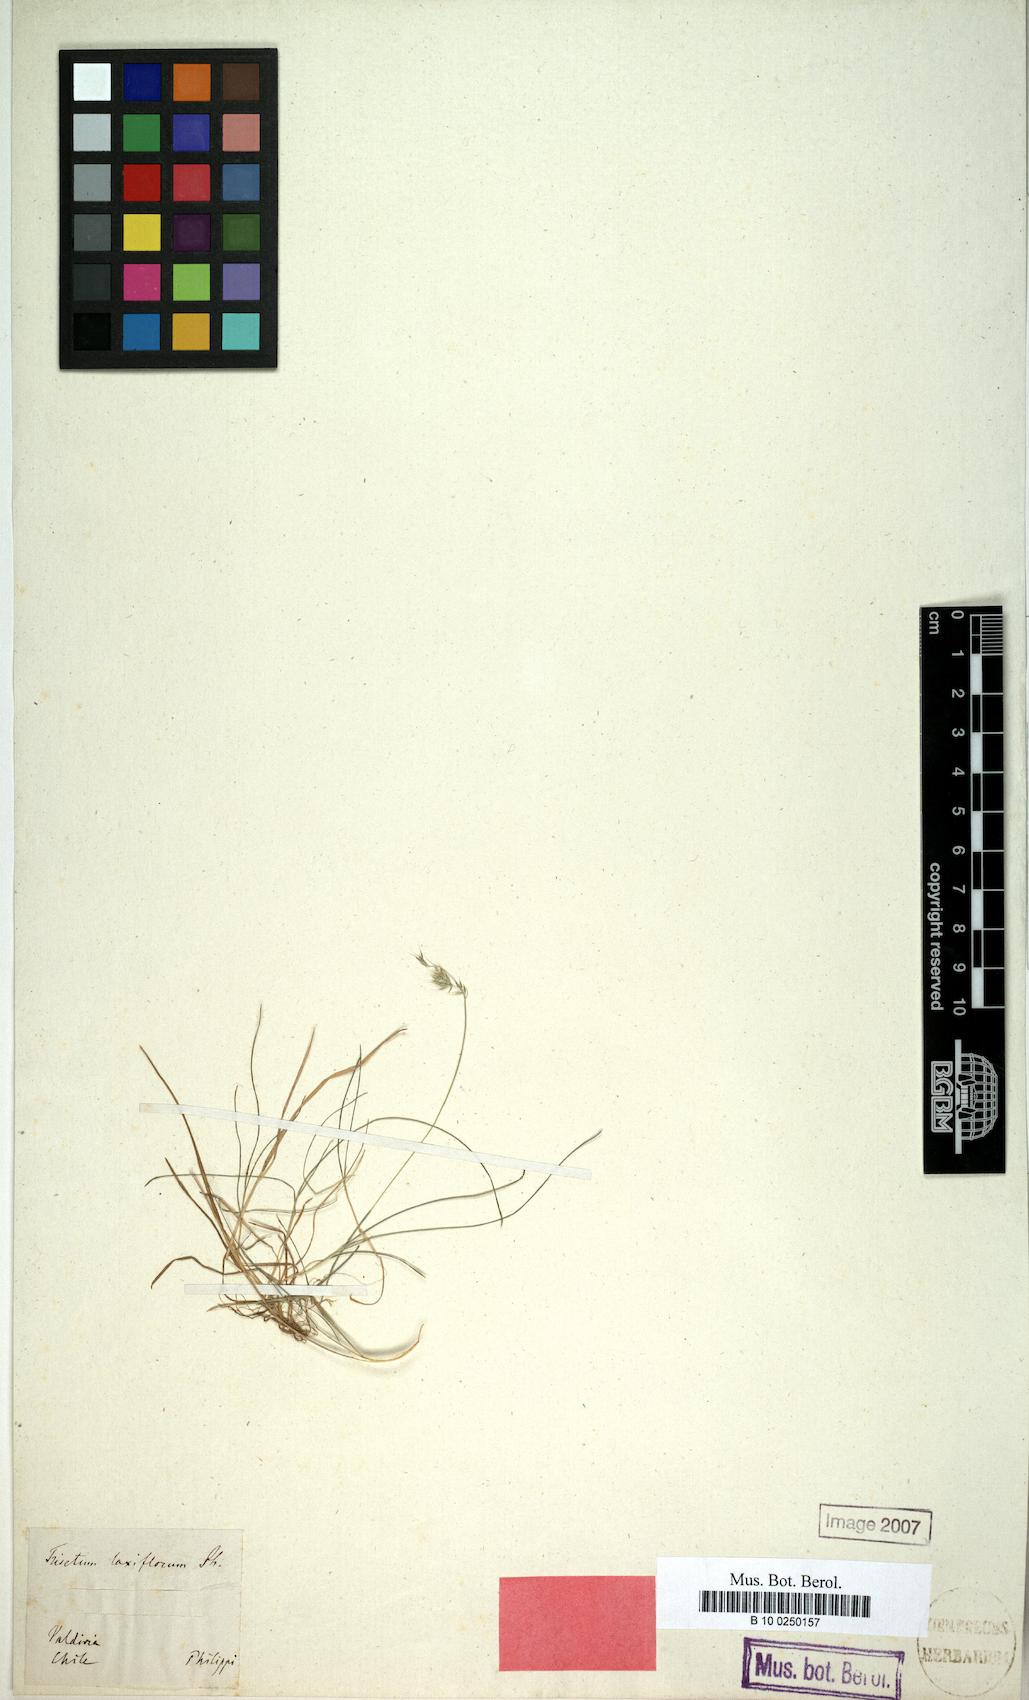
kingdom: Plantae
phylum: Tracheophyta
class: Liliopsida
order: Poales
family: Poaceae
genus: Cinnagrostis
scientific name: Cinnagrostis micrathera
